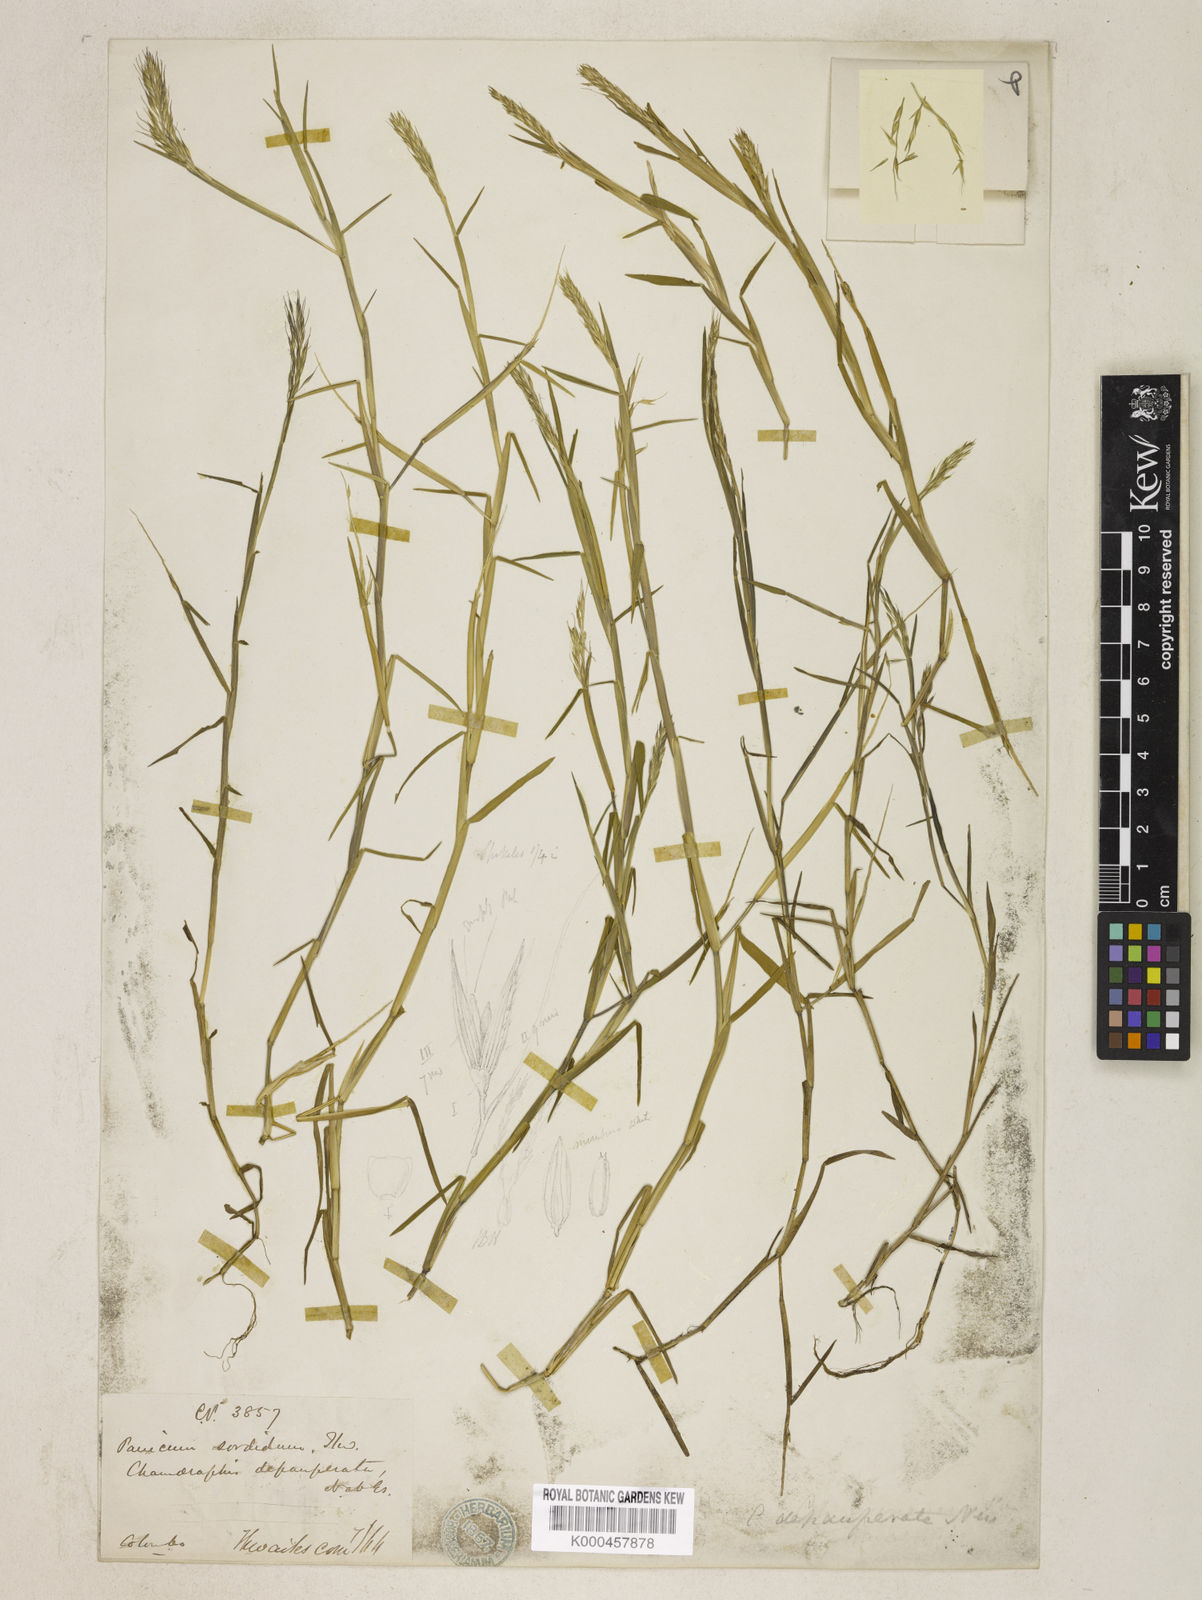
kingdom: Plantae
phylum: Tracheophyta
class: Liliopsida
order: Poales
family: Poaceae
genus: Pseudoraphis
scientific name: Pseudoraphis sordida
